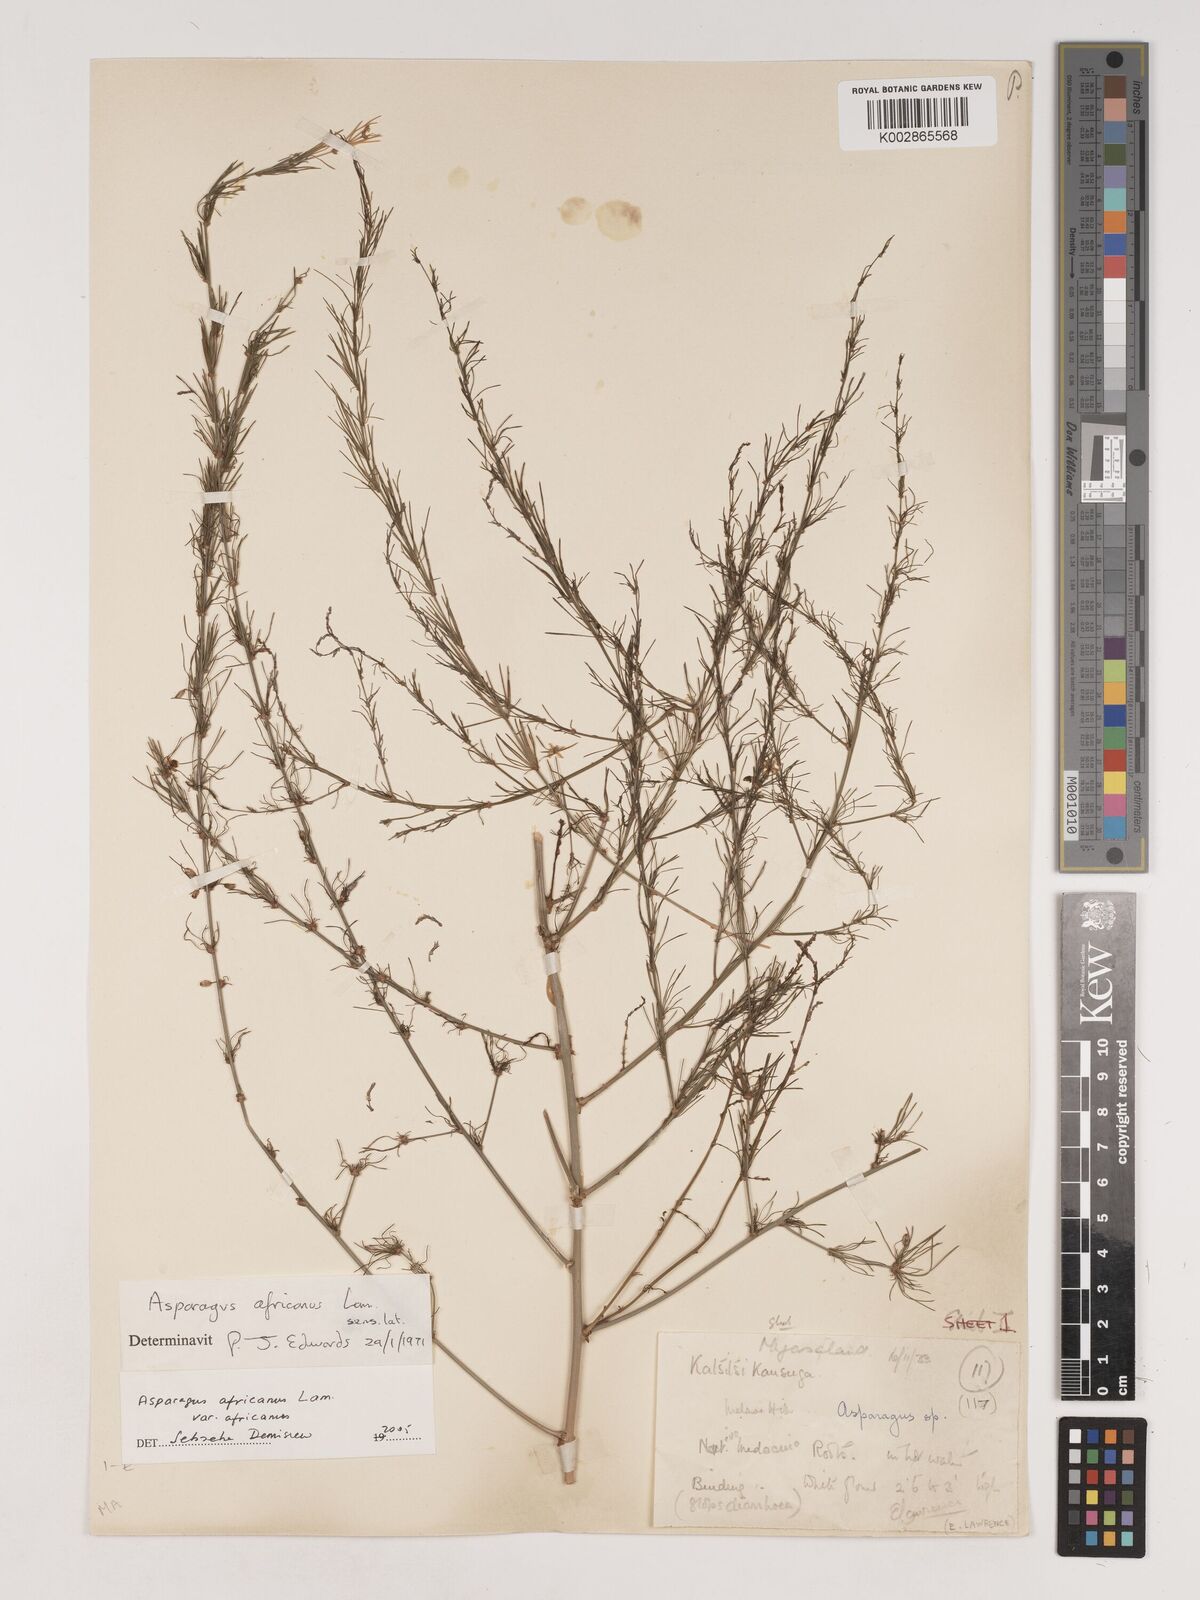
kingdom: Plantae
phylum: Tracheophyta
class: Liliopsida
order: Asparagales
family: Asparagaceae
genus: Asparagus
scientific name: Asparagus africanus
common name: Asparagus-fern
